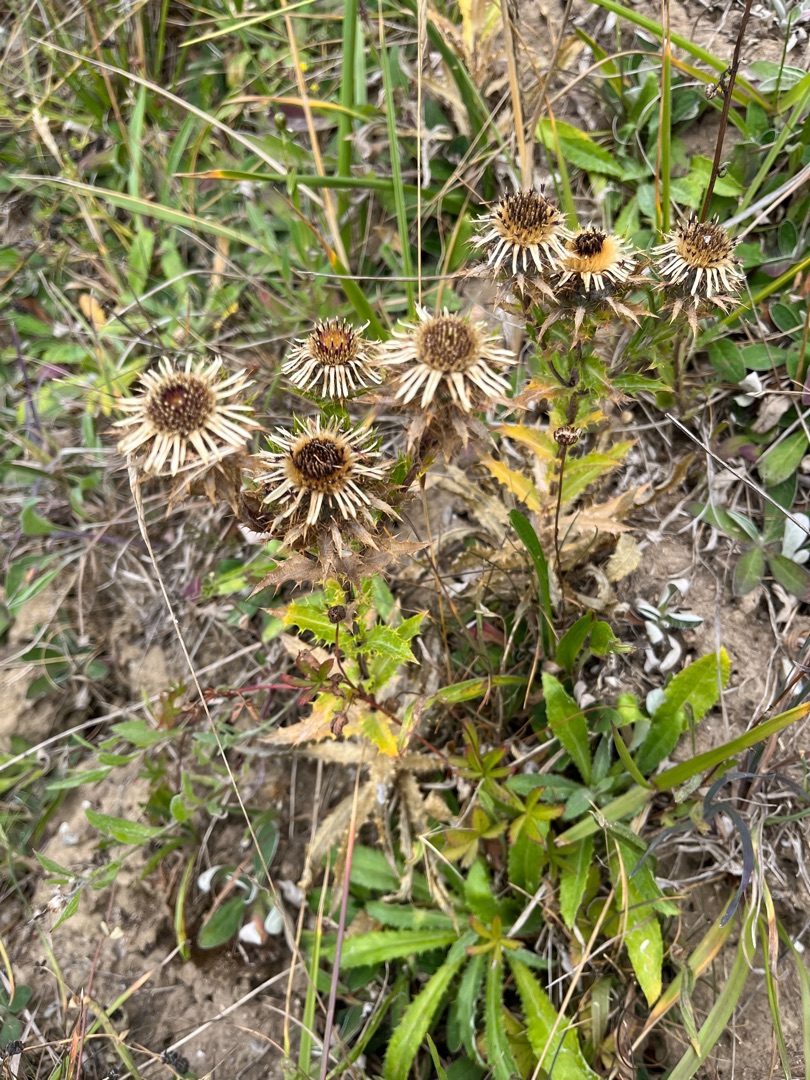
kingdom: Plantae
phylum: Tracheophyta
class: Magnoliopsida
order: Asterales
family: Asteraceae
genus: Carlina
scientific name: Carlina vulgaris
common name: Bakketidsel
